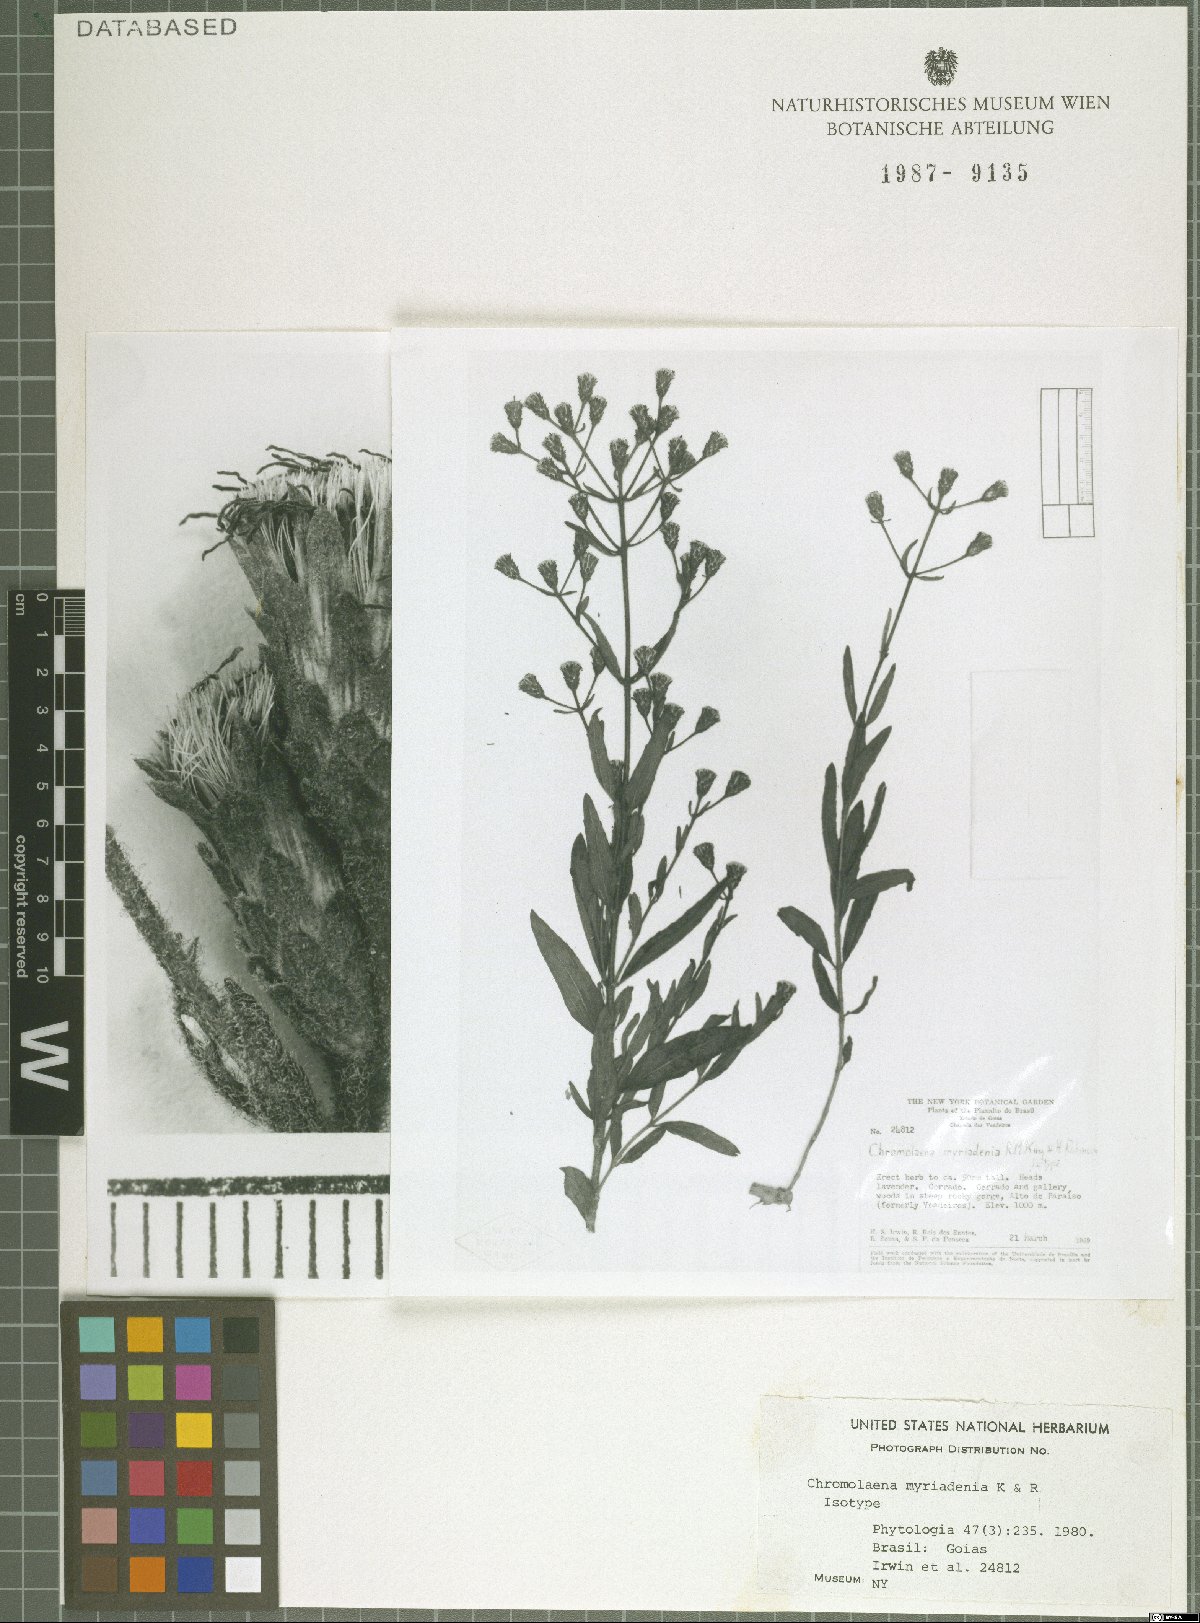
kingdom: Plantae
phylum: Tracheophyta
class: Magnoliopsida
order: Asterales
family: Asteraceae
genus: Chromolaena
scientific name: Chromolaena myriadenia
